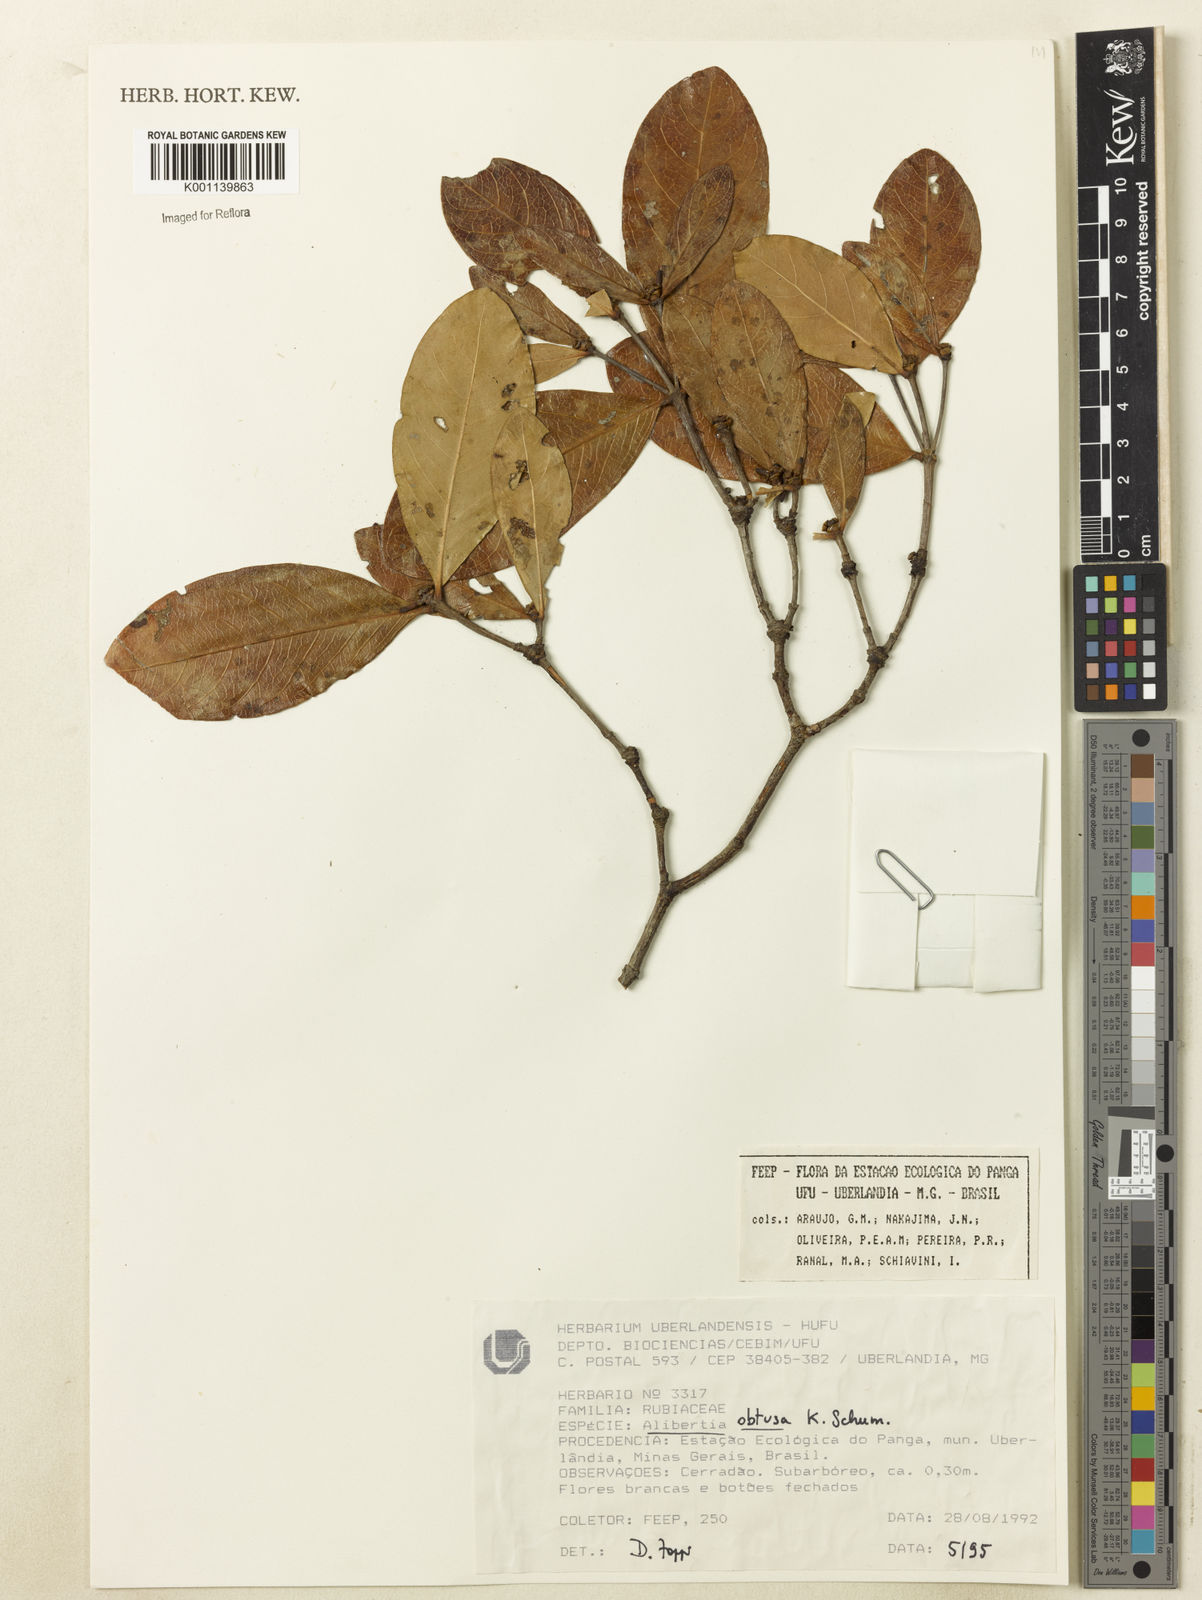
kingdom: Plantae
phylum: Tracheophyta
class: Magnoliopsida
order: Gentianales
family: Rubiaceae
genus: Cordiera
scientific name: Cordiera obtusa
